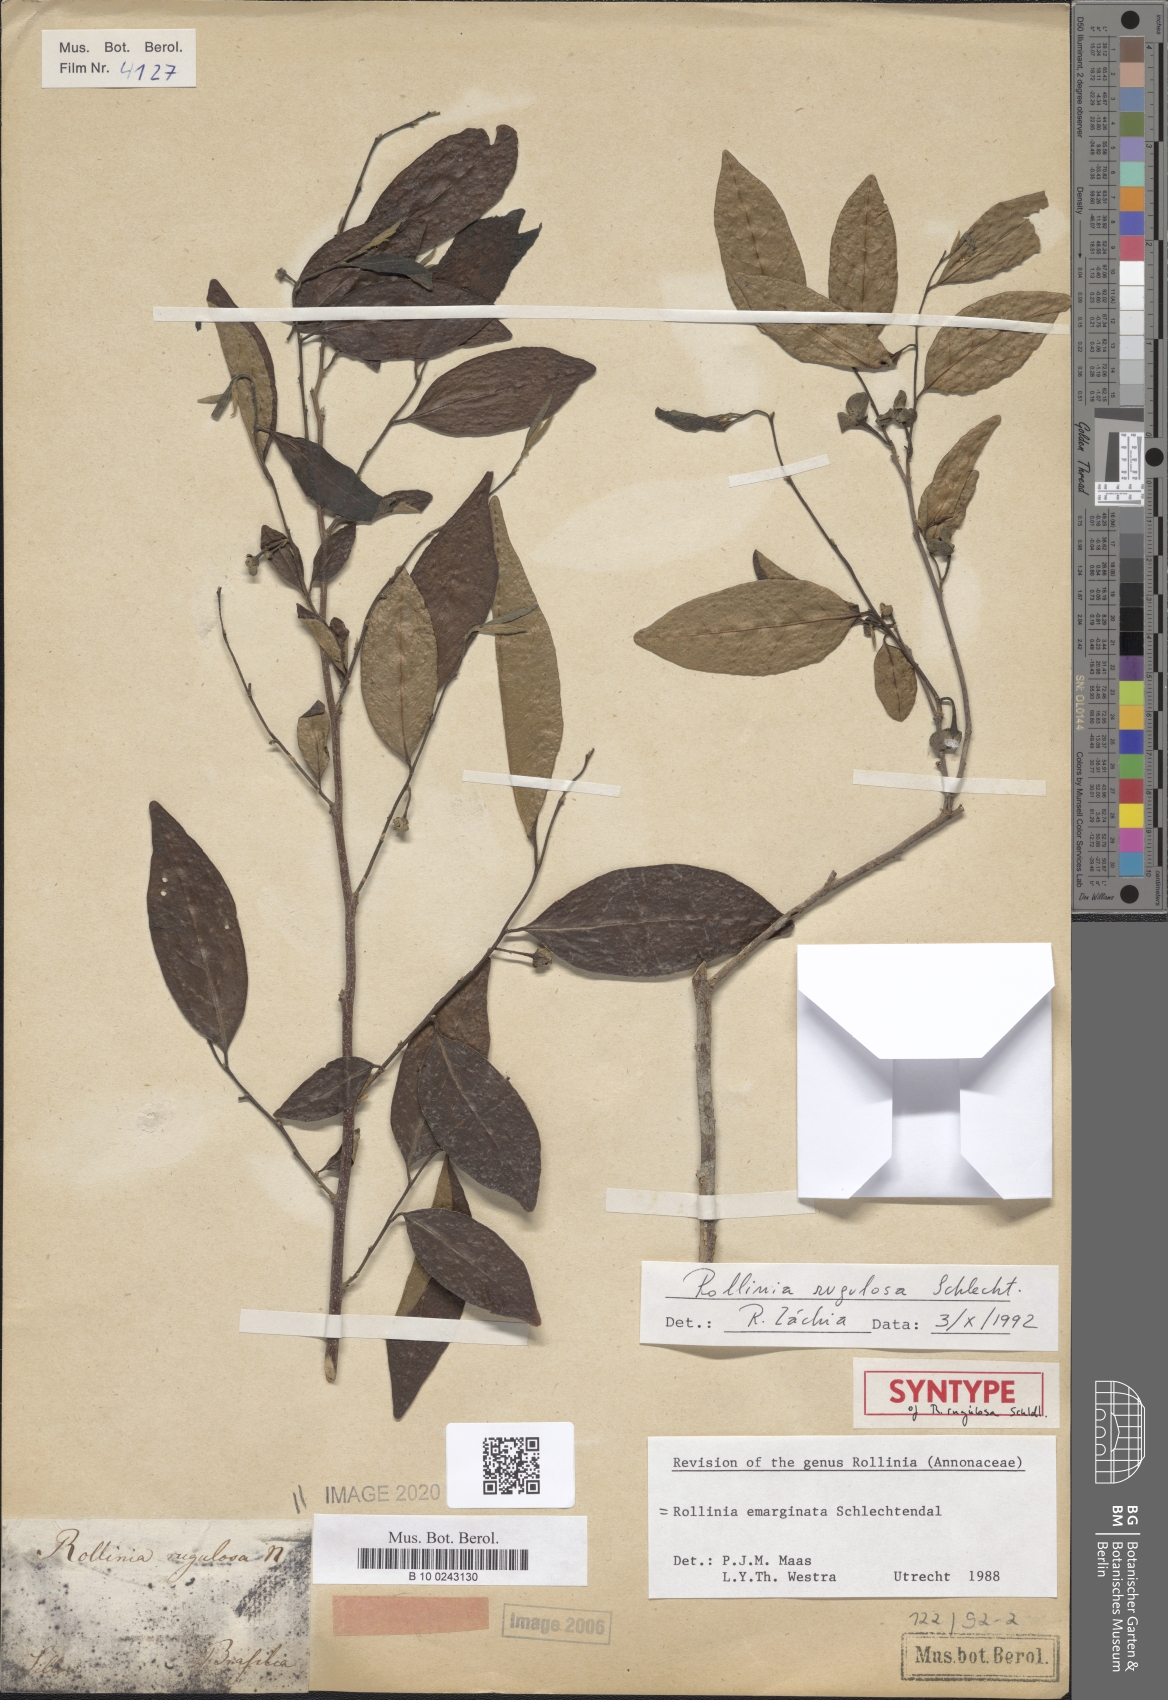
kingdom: Plantae
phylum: Tracheophyta
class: Magnoliopsida
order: Magnoliales
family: Annonaceae
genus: Annona
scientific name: Annona emarginata
